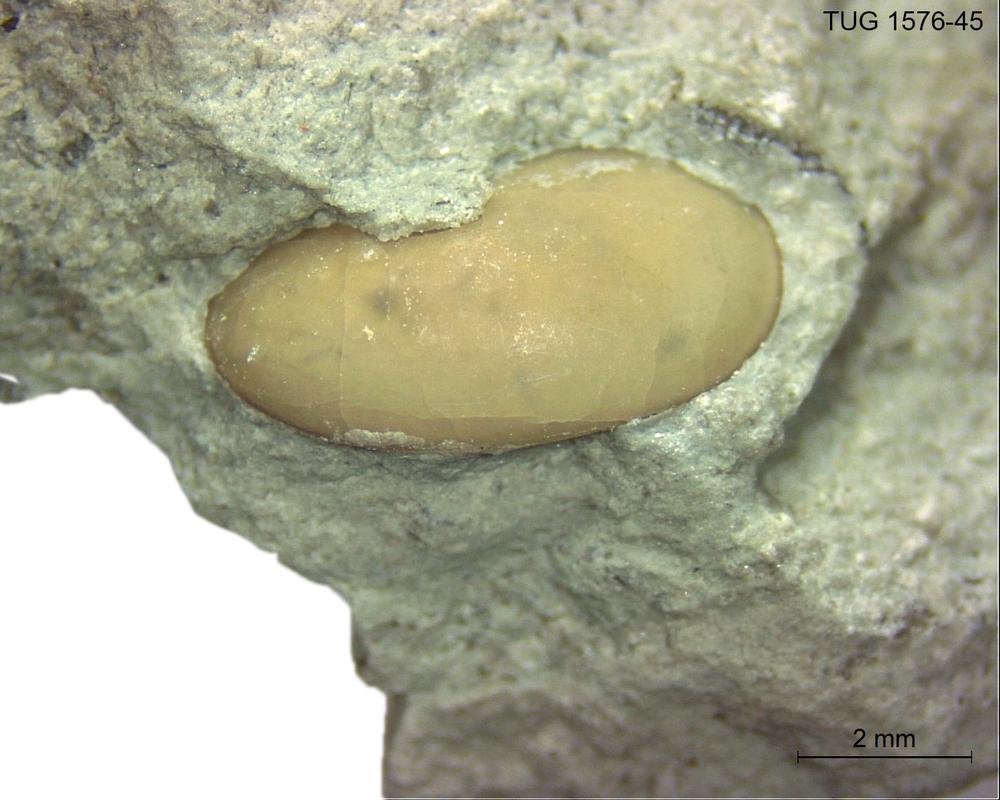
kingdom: Animalia
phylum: Arthropoda
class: Ostracoda
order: Platycopida
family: Leperditiidae
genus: Leperditia
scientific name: Leperditia
